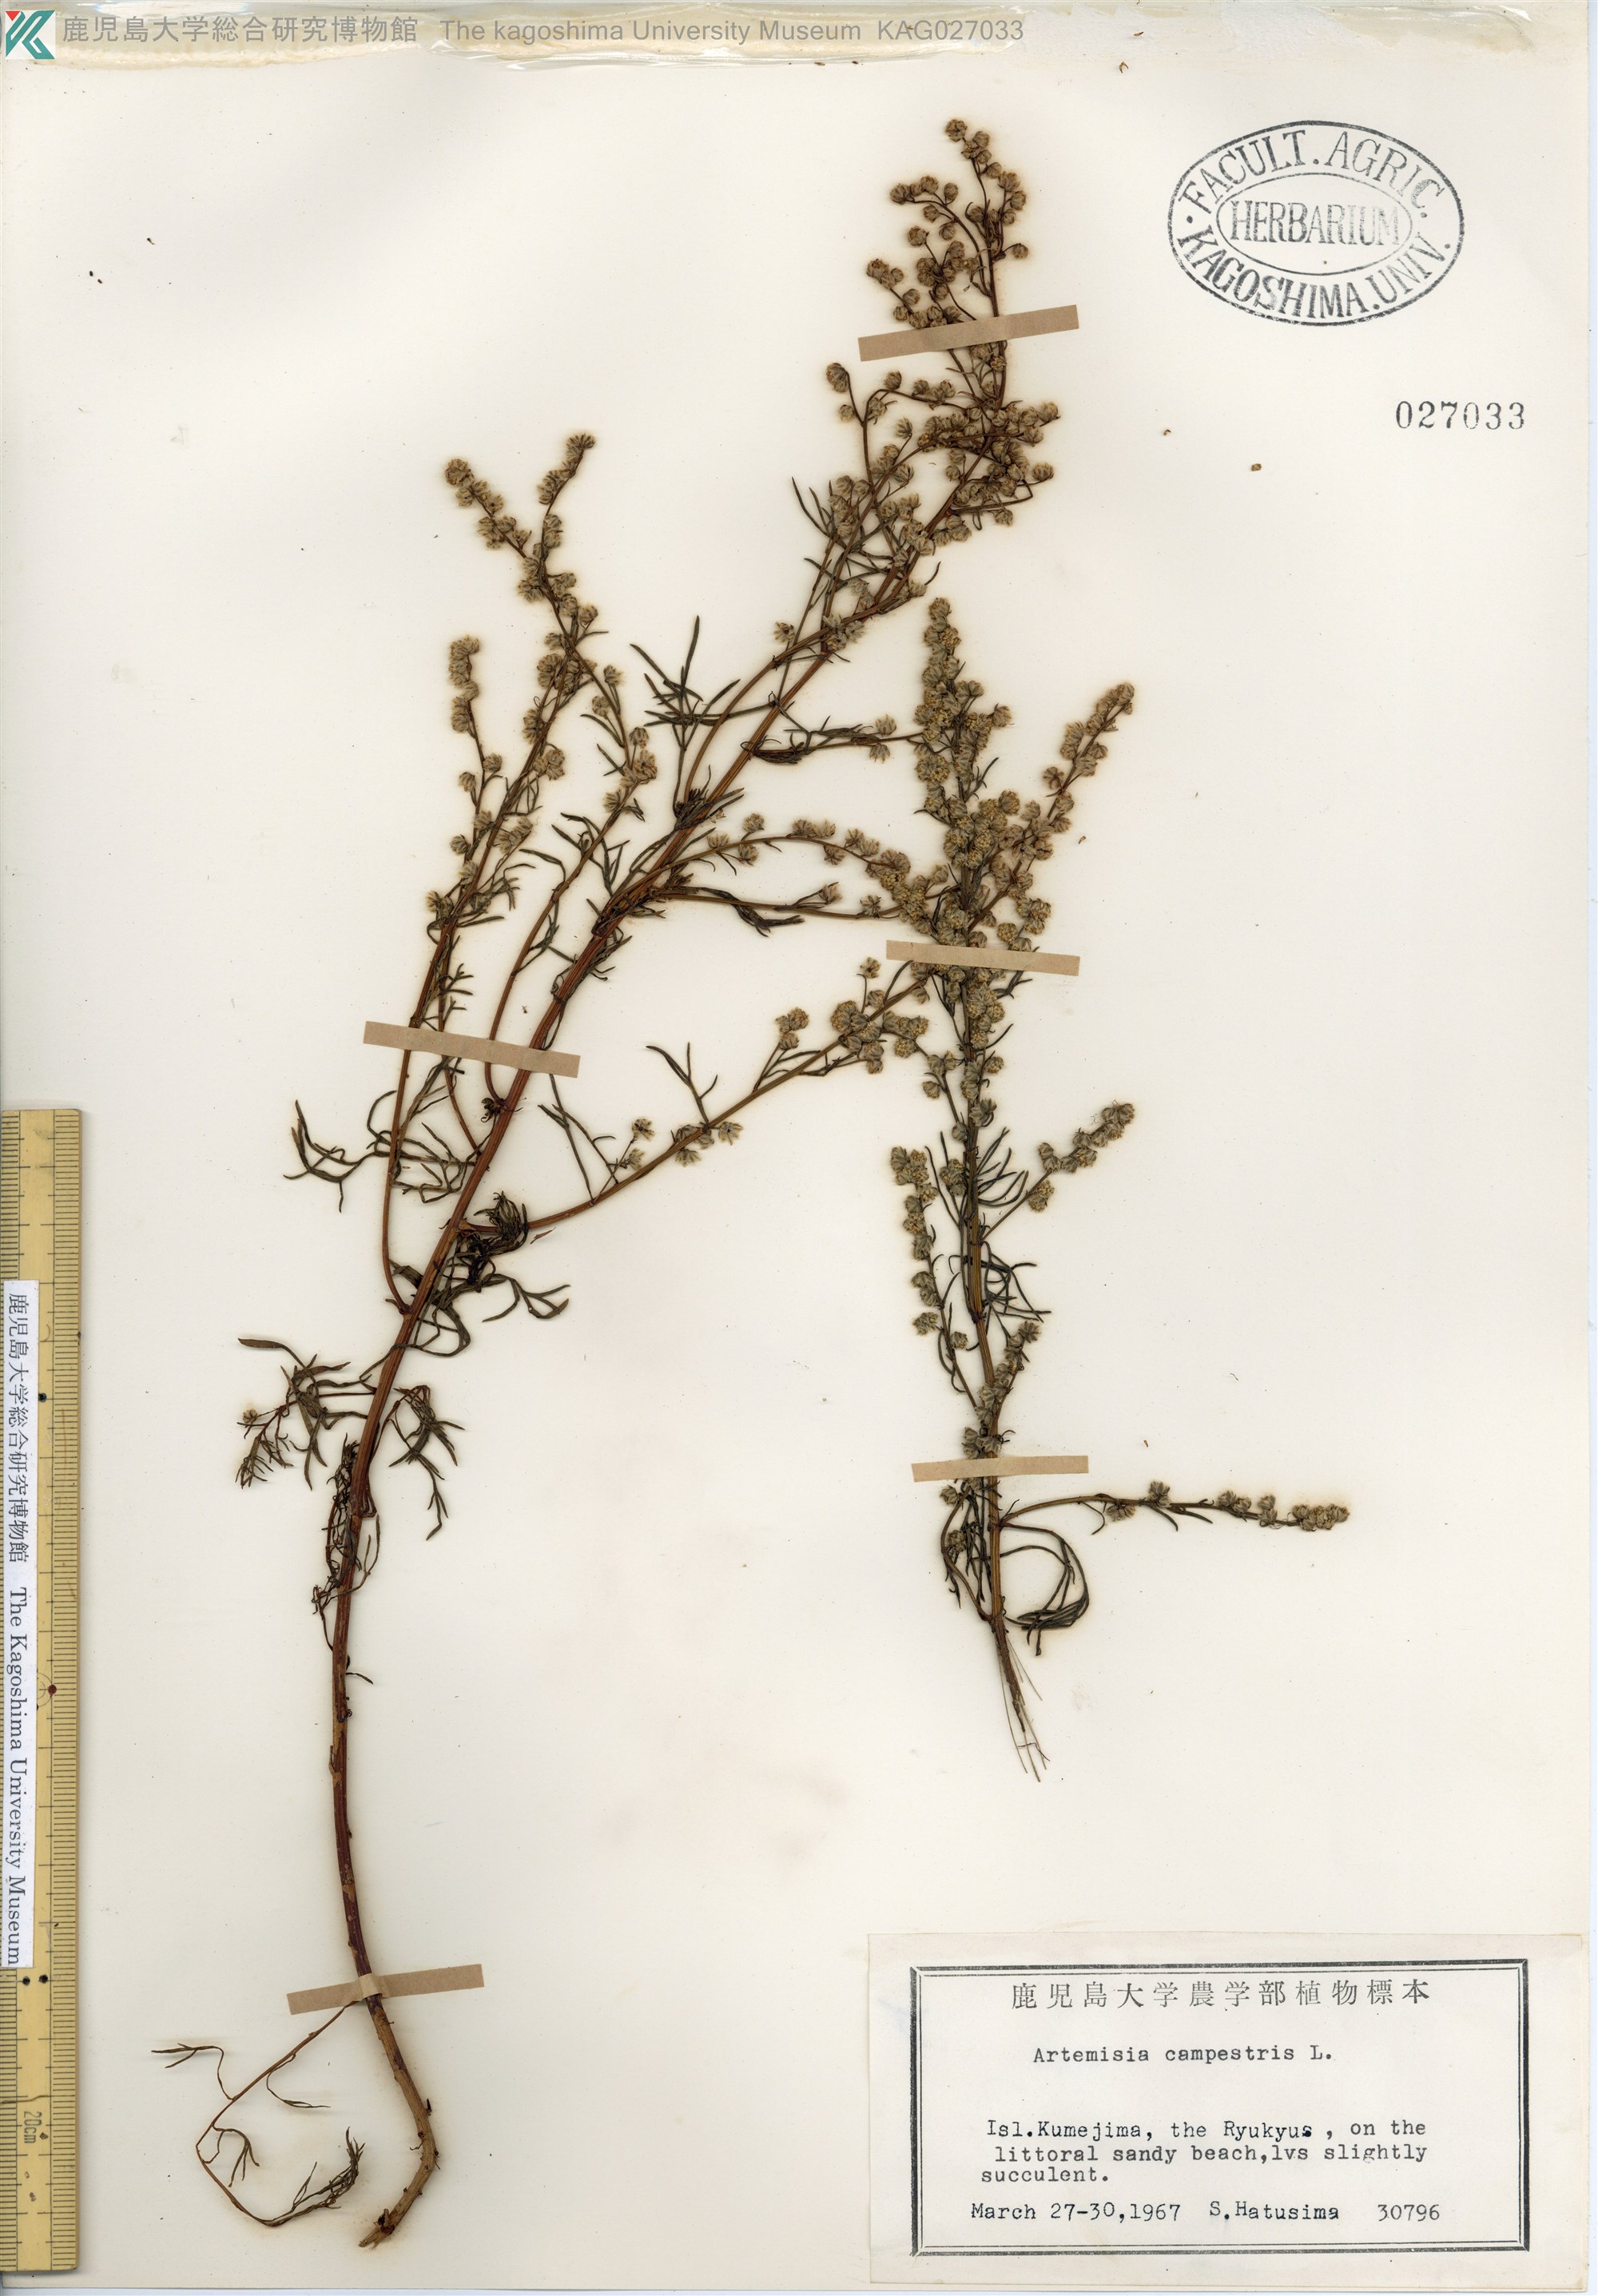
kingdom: Plantae
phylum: Tracheophyta
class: Magnoliopsida
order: Asterales
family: Asteraceae
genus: Artemisia
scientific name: Artemisia morrisonensis
